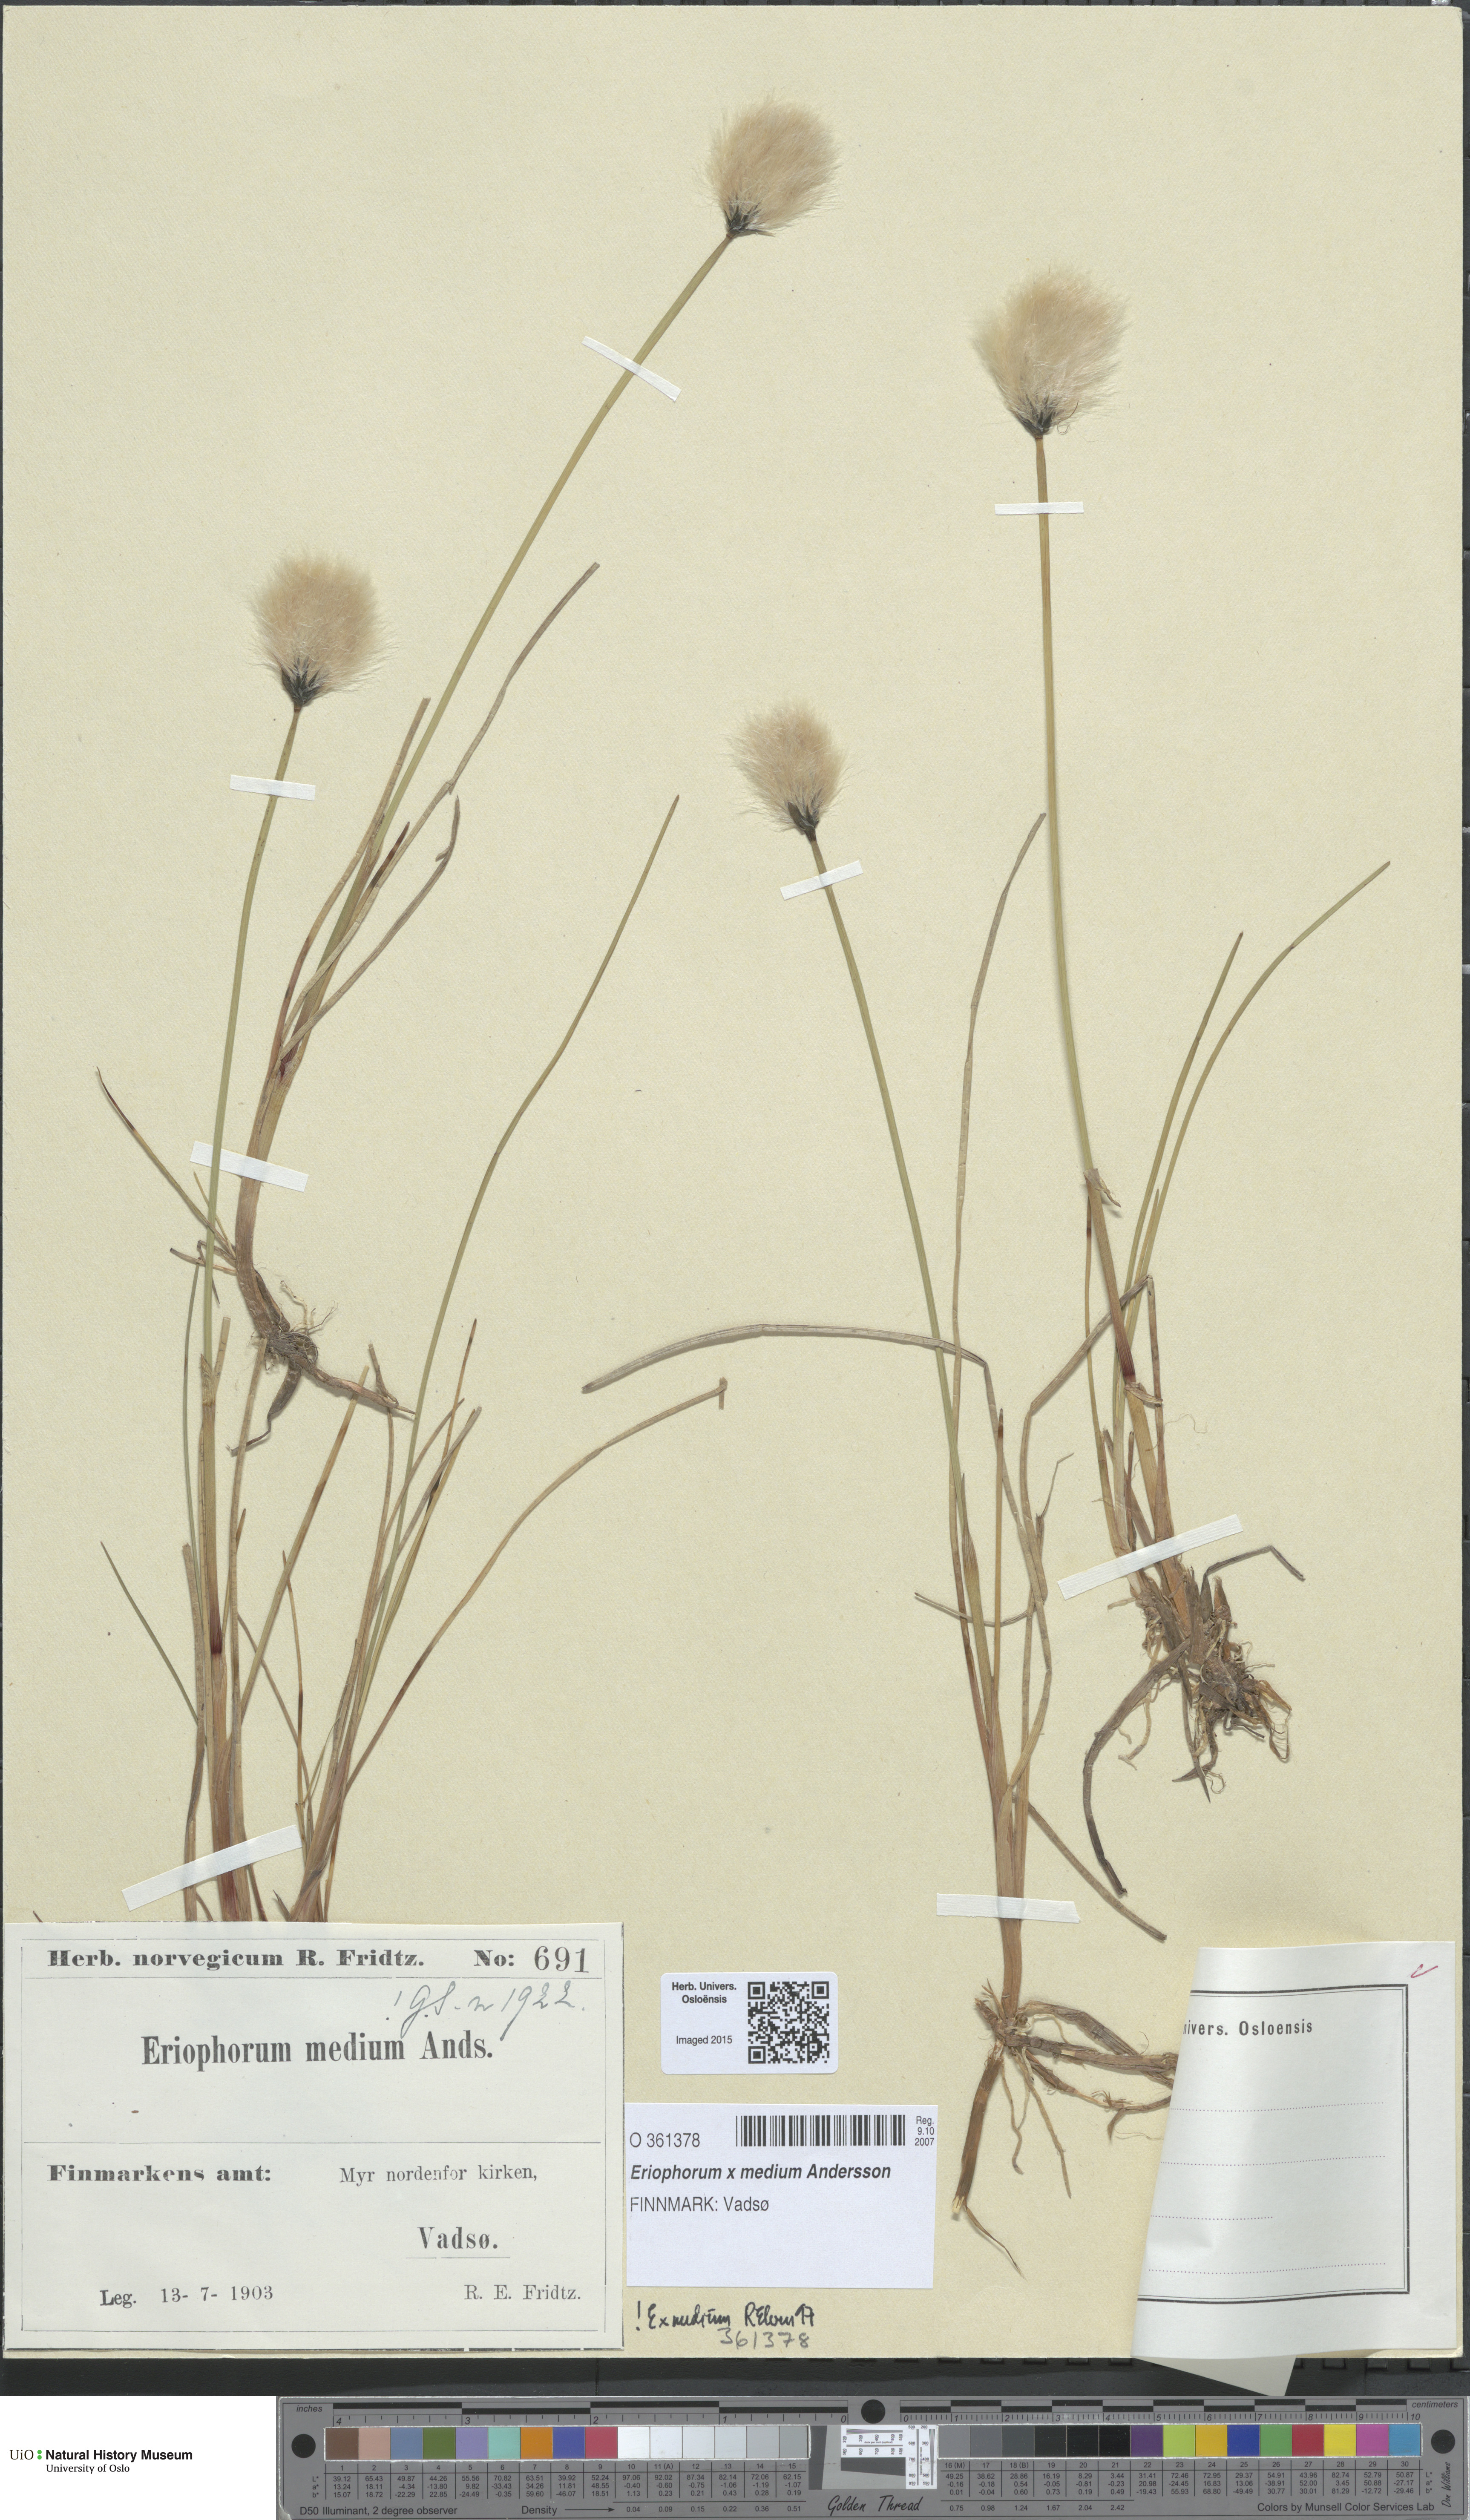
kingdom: Plantae
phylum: Tracheophyta
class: Liliopsida
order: Poales
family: Cyperaceae
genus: Eriophorum
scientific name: Eriophorum medium
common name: Intermediate cottongrass
